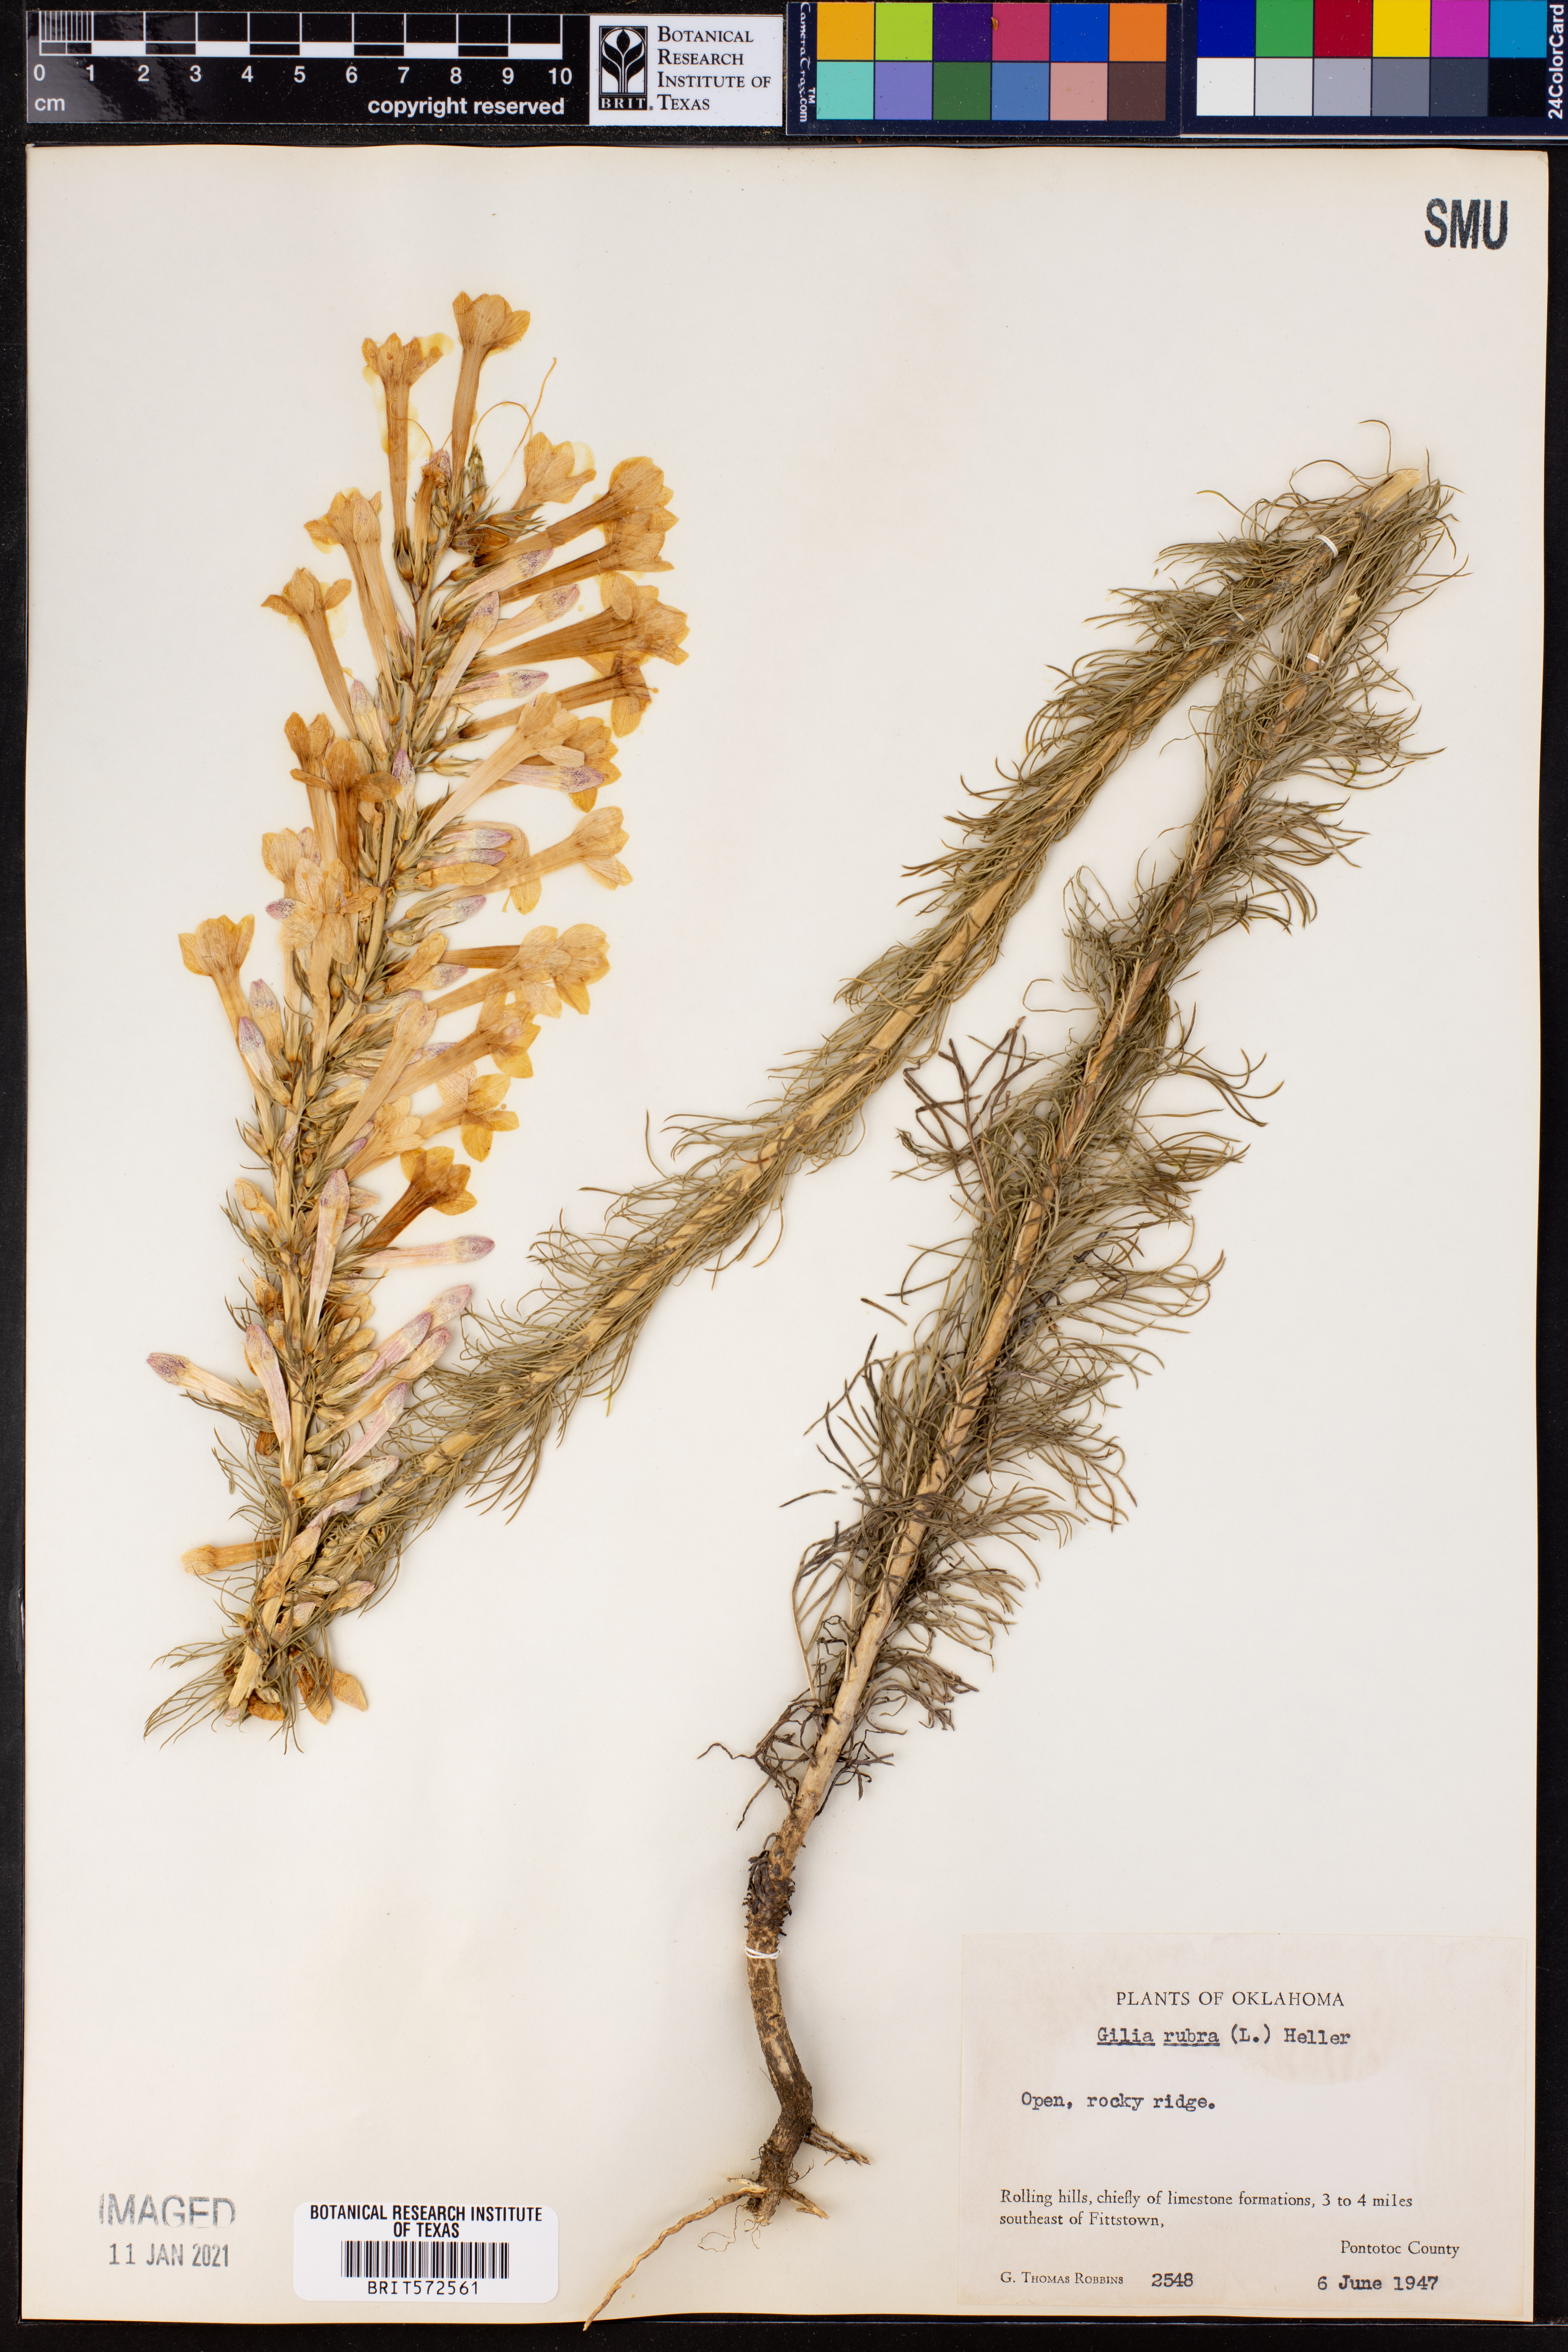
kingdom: Plantae
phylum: Tracheophyta
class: Magnoliopsida
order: Ericales
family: Polemoniaceae
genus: Ipomopsis
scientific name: Ipomopsis rubra
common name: Skyrocket
